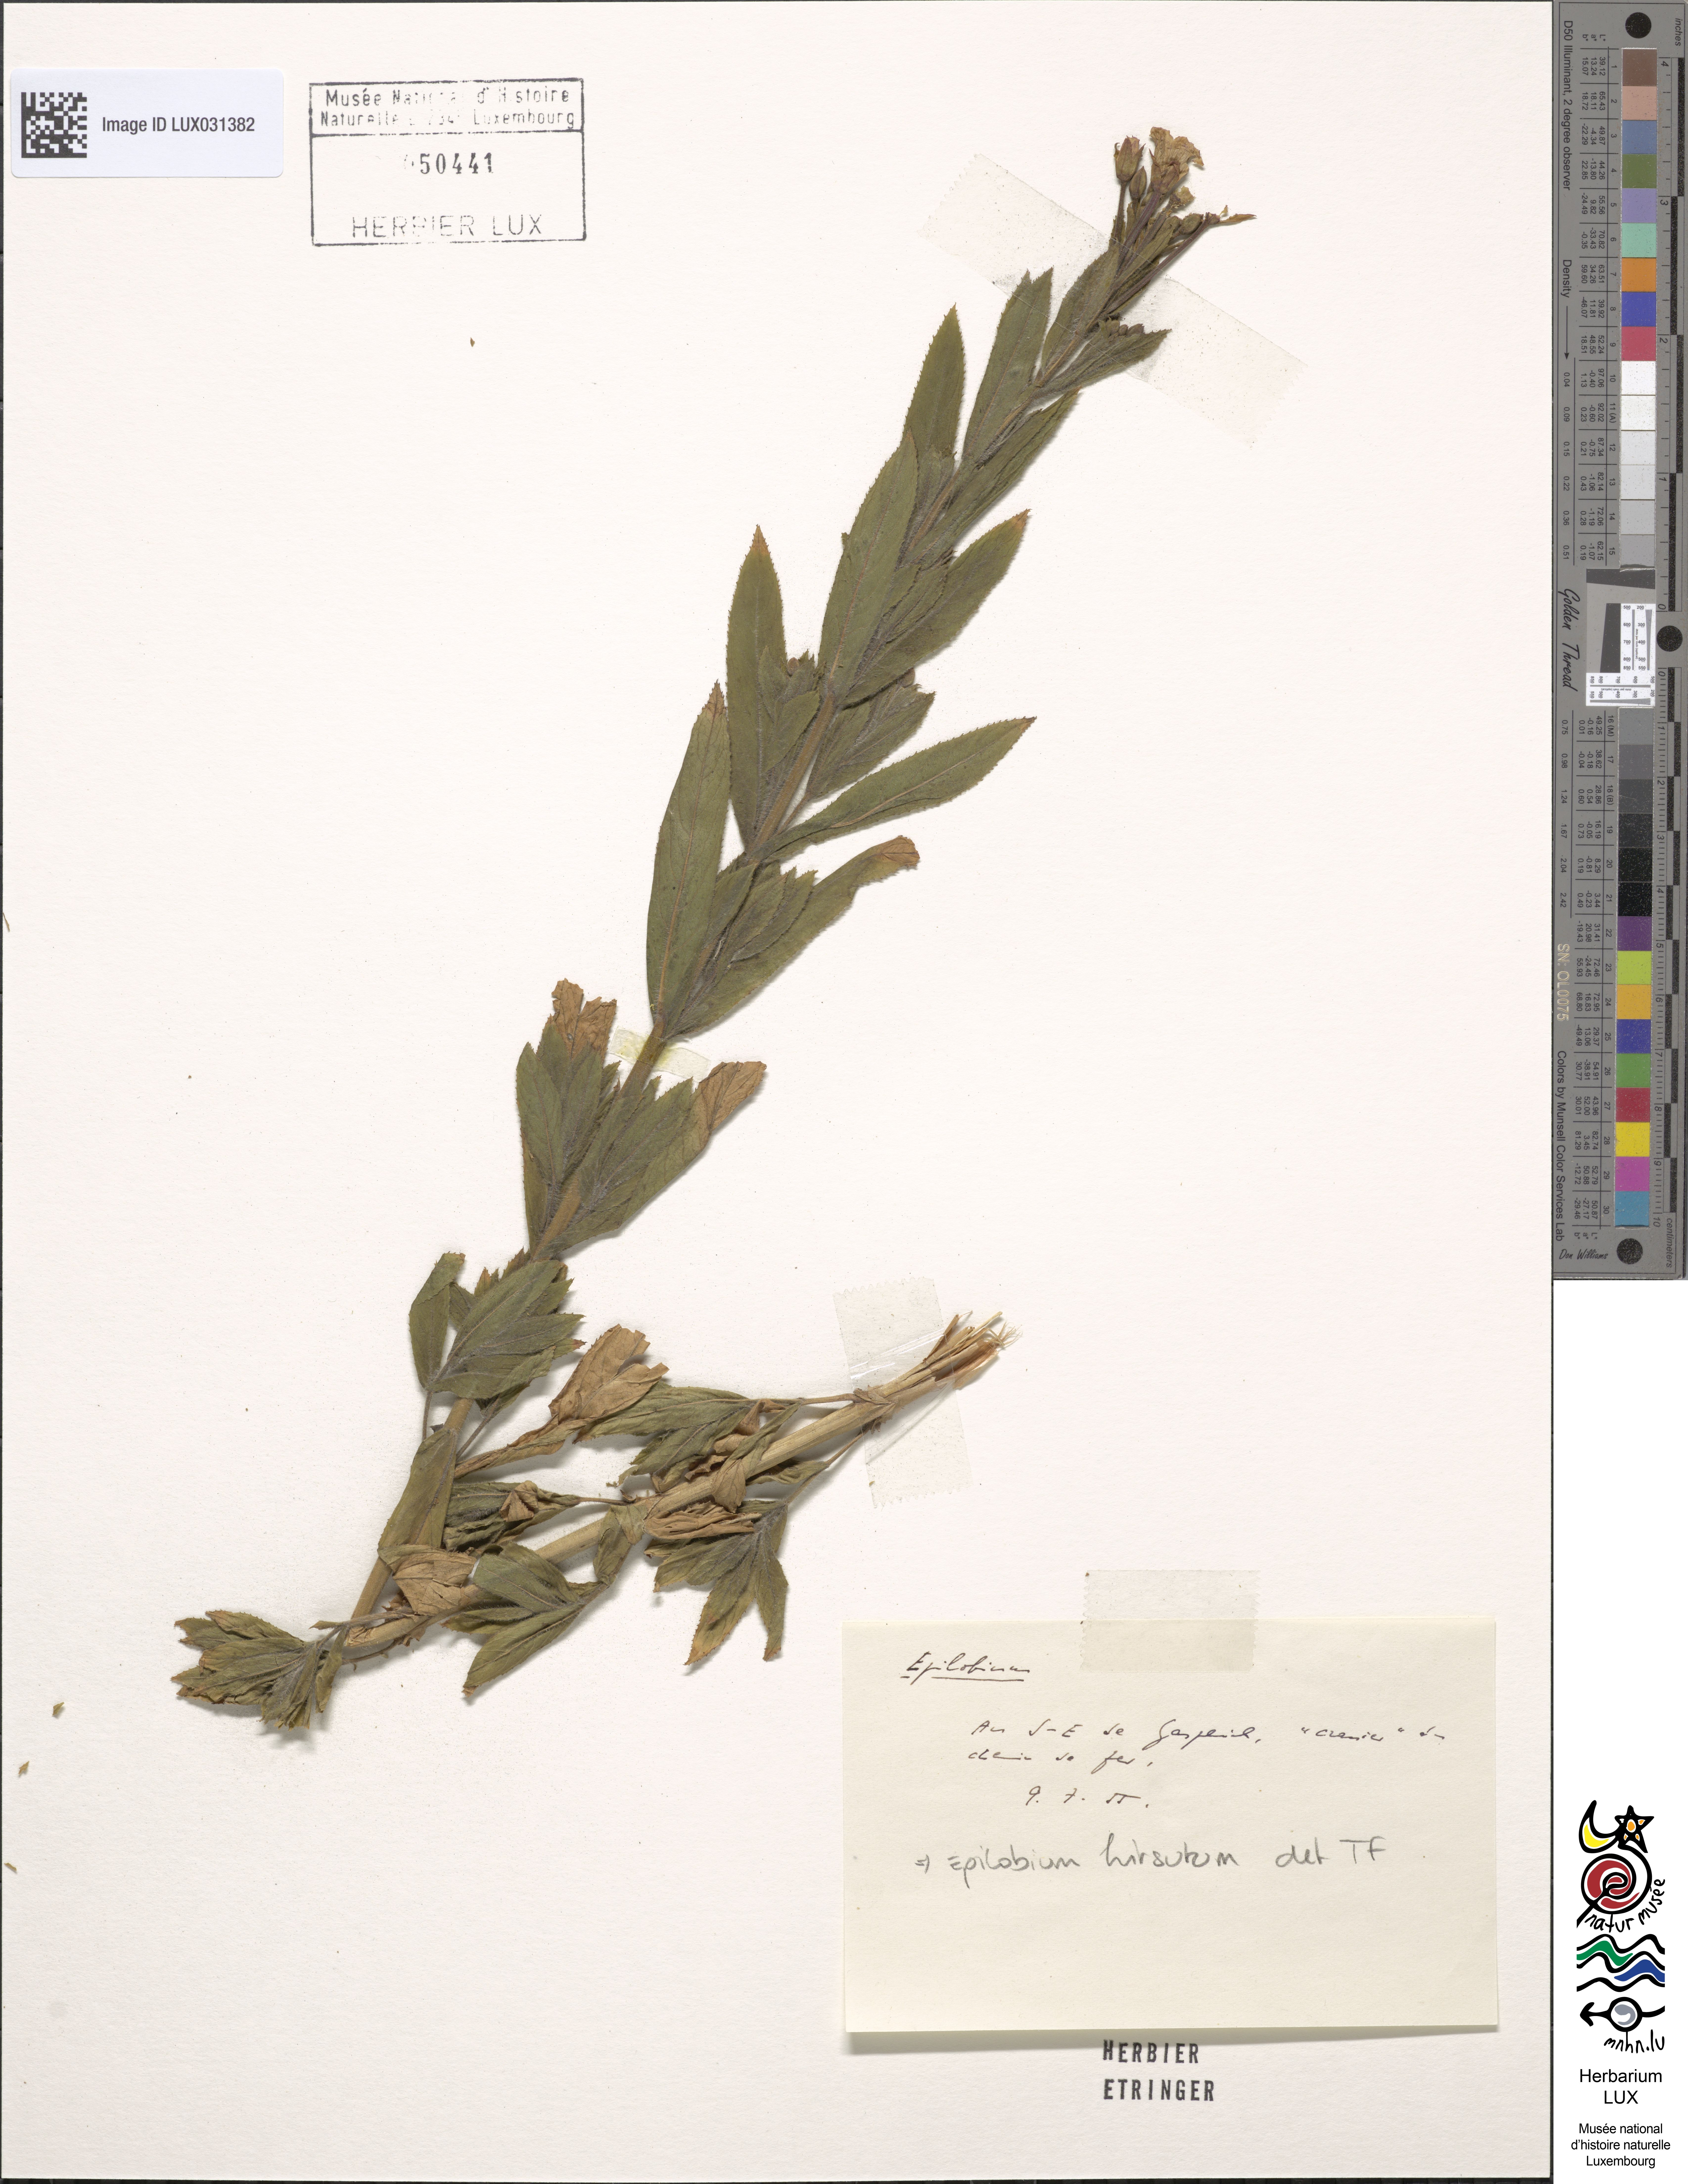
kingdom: Plantae
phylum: Tracheophyta
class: Magnoliopsida
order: Myrtales
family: Onagraceae
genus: Epilobium
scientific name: Epilobium hirsutum
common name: Great willowherb
